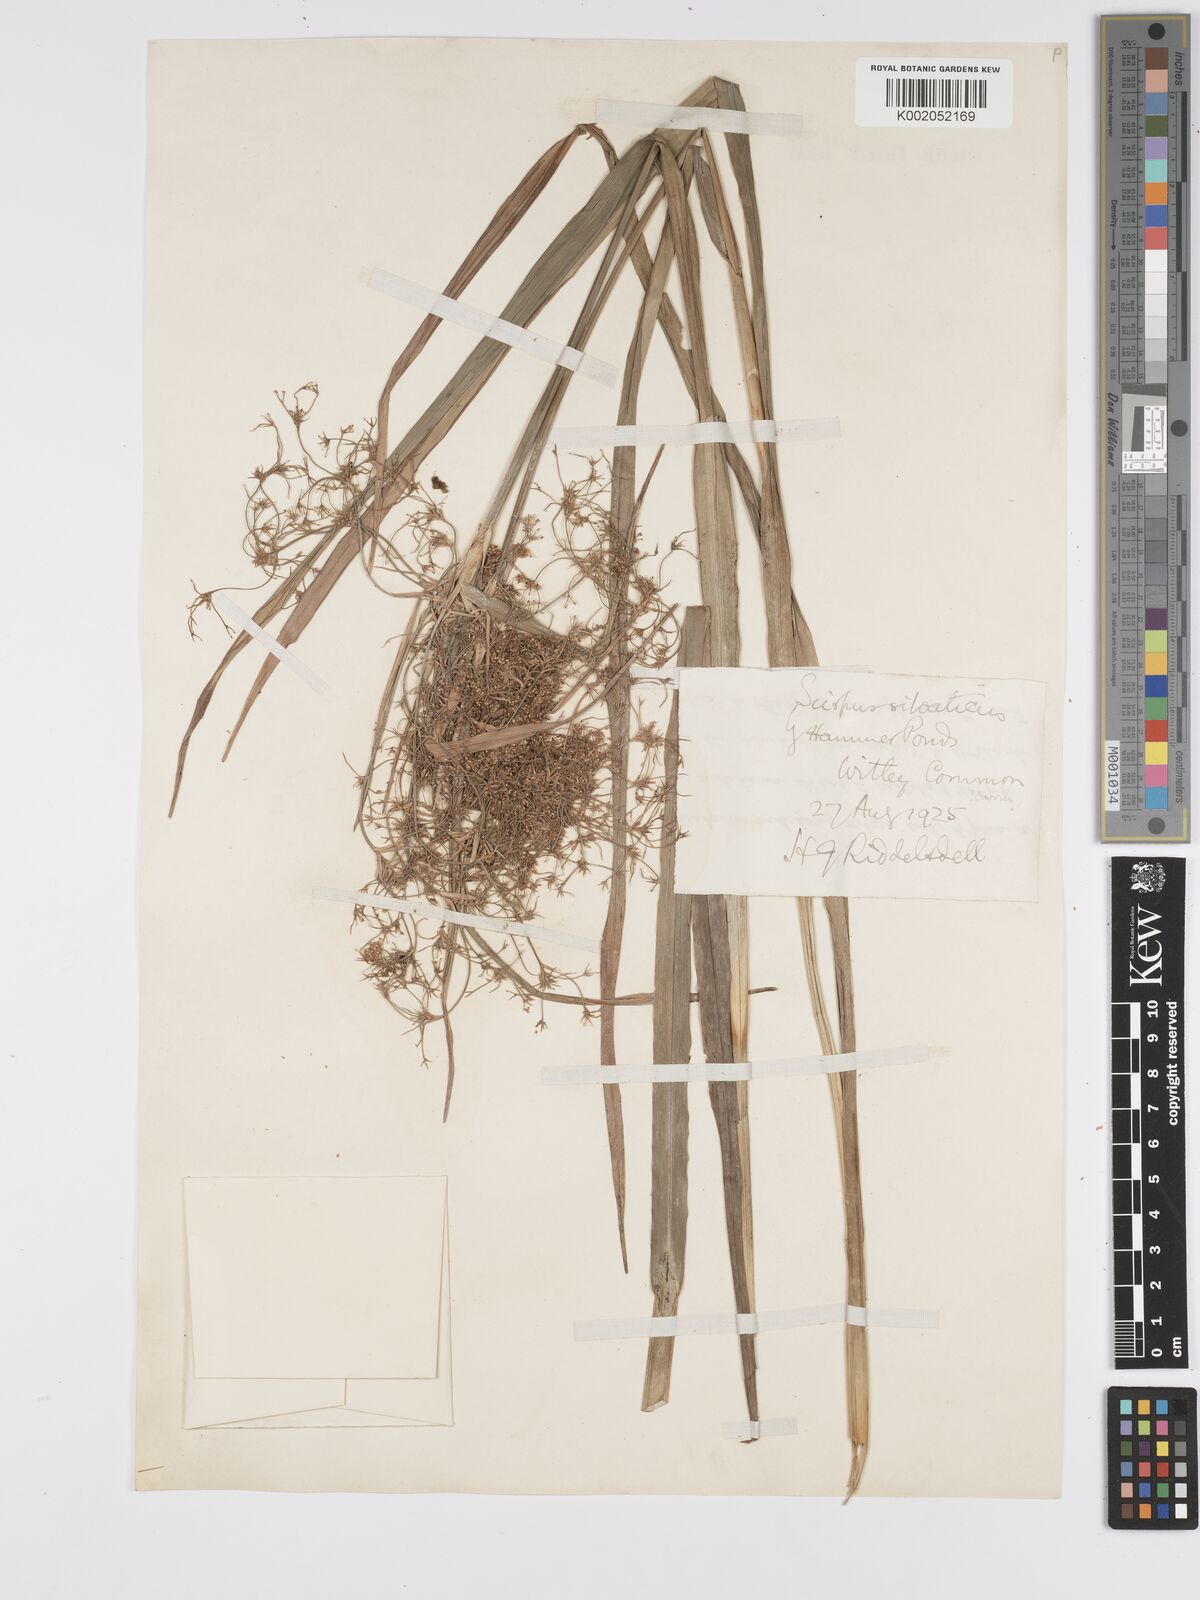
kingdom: Plantae
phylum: Tracheophyta
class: Liliopsida
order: Poales
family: Cyperaceae
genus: Scirpus
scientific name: Scirpus sylvaticus
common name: Wood club-rush
